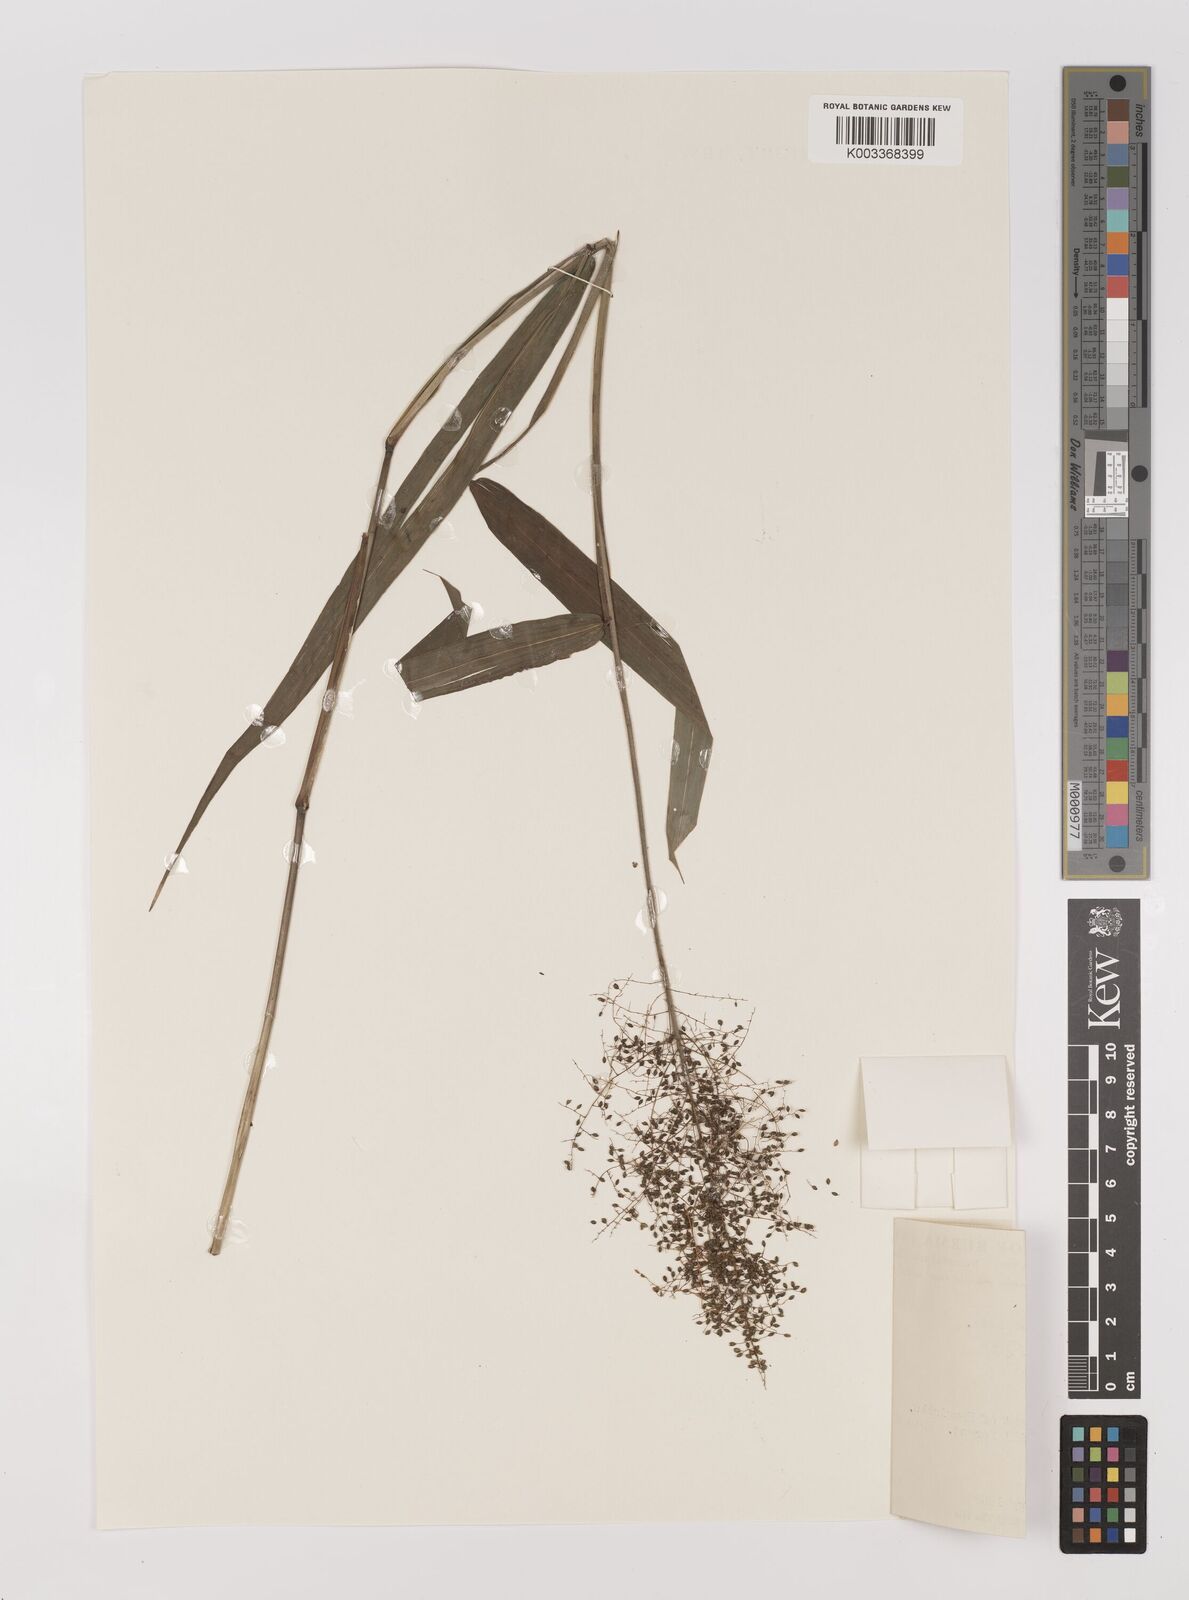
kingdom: Plantae
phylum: Tracheophyta
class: Liliopsida
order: Poales
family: Poaceae
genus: Panicum
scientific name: Panicum incomtum
